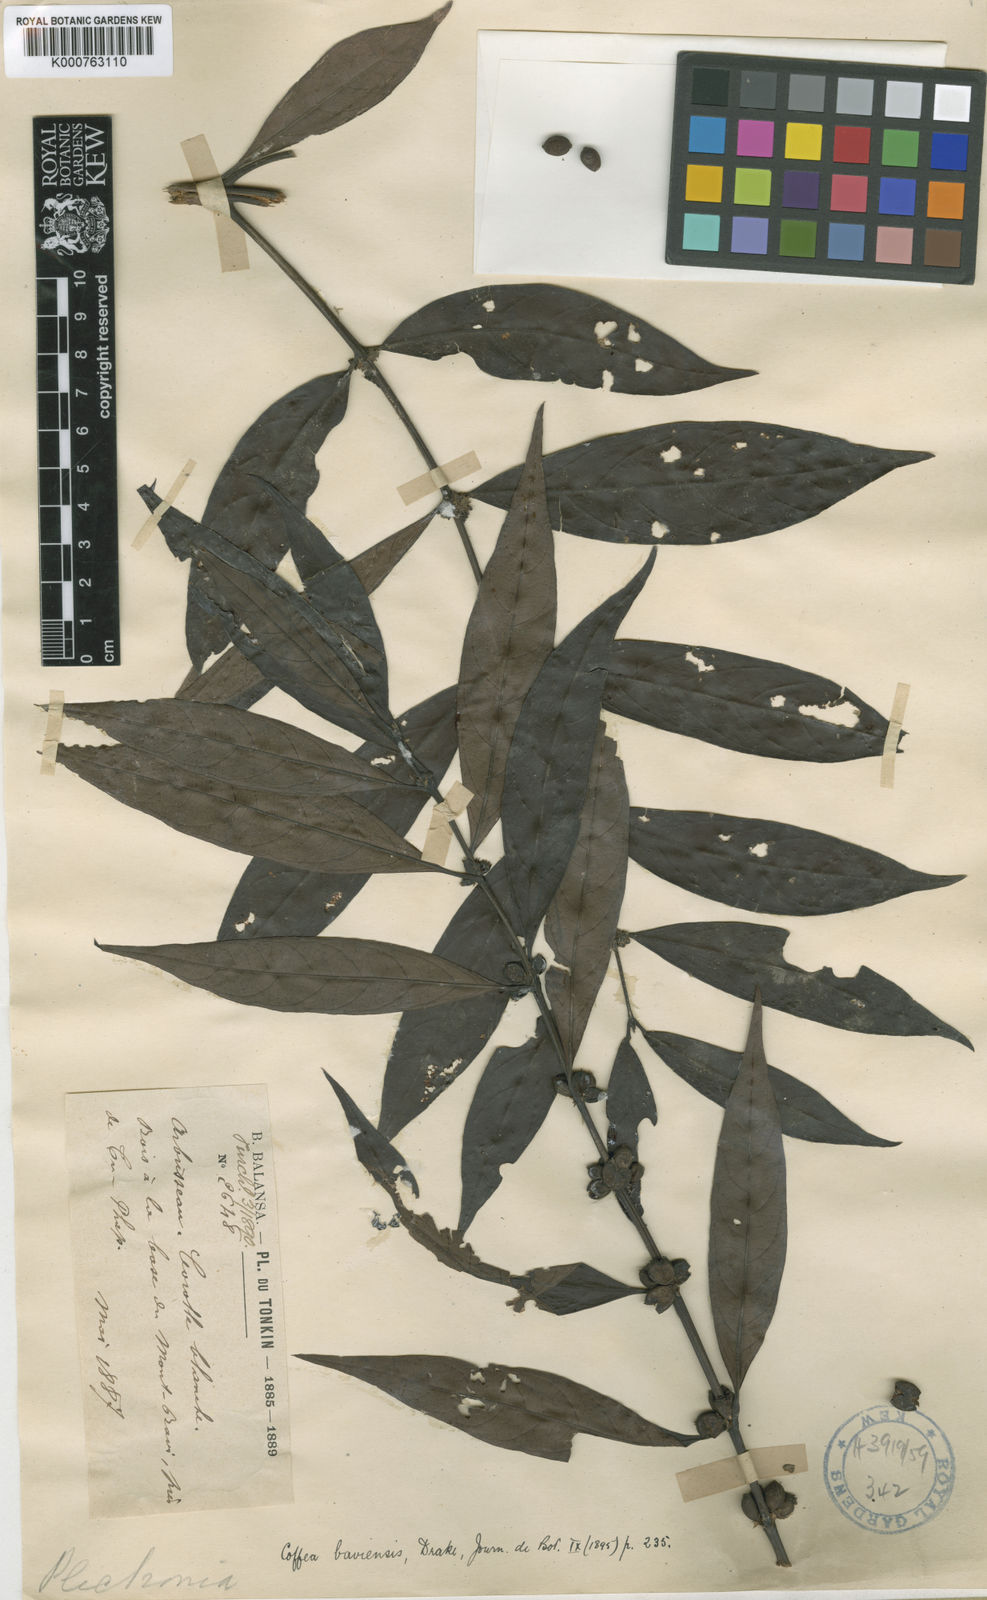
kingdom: Plantae
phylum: Tracheophyta
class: Magnoliopsida
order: Gentianales
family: Rubiaceae
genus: Hyptianthera
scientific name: Hyptianthera
